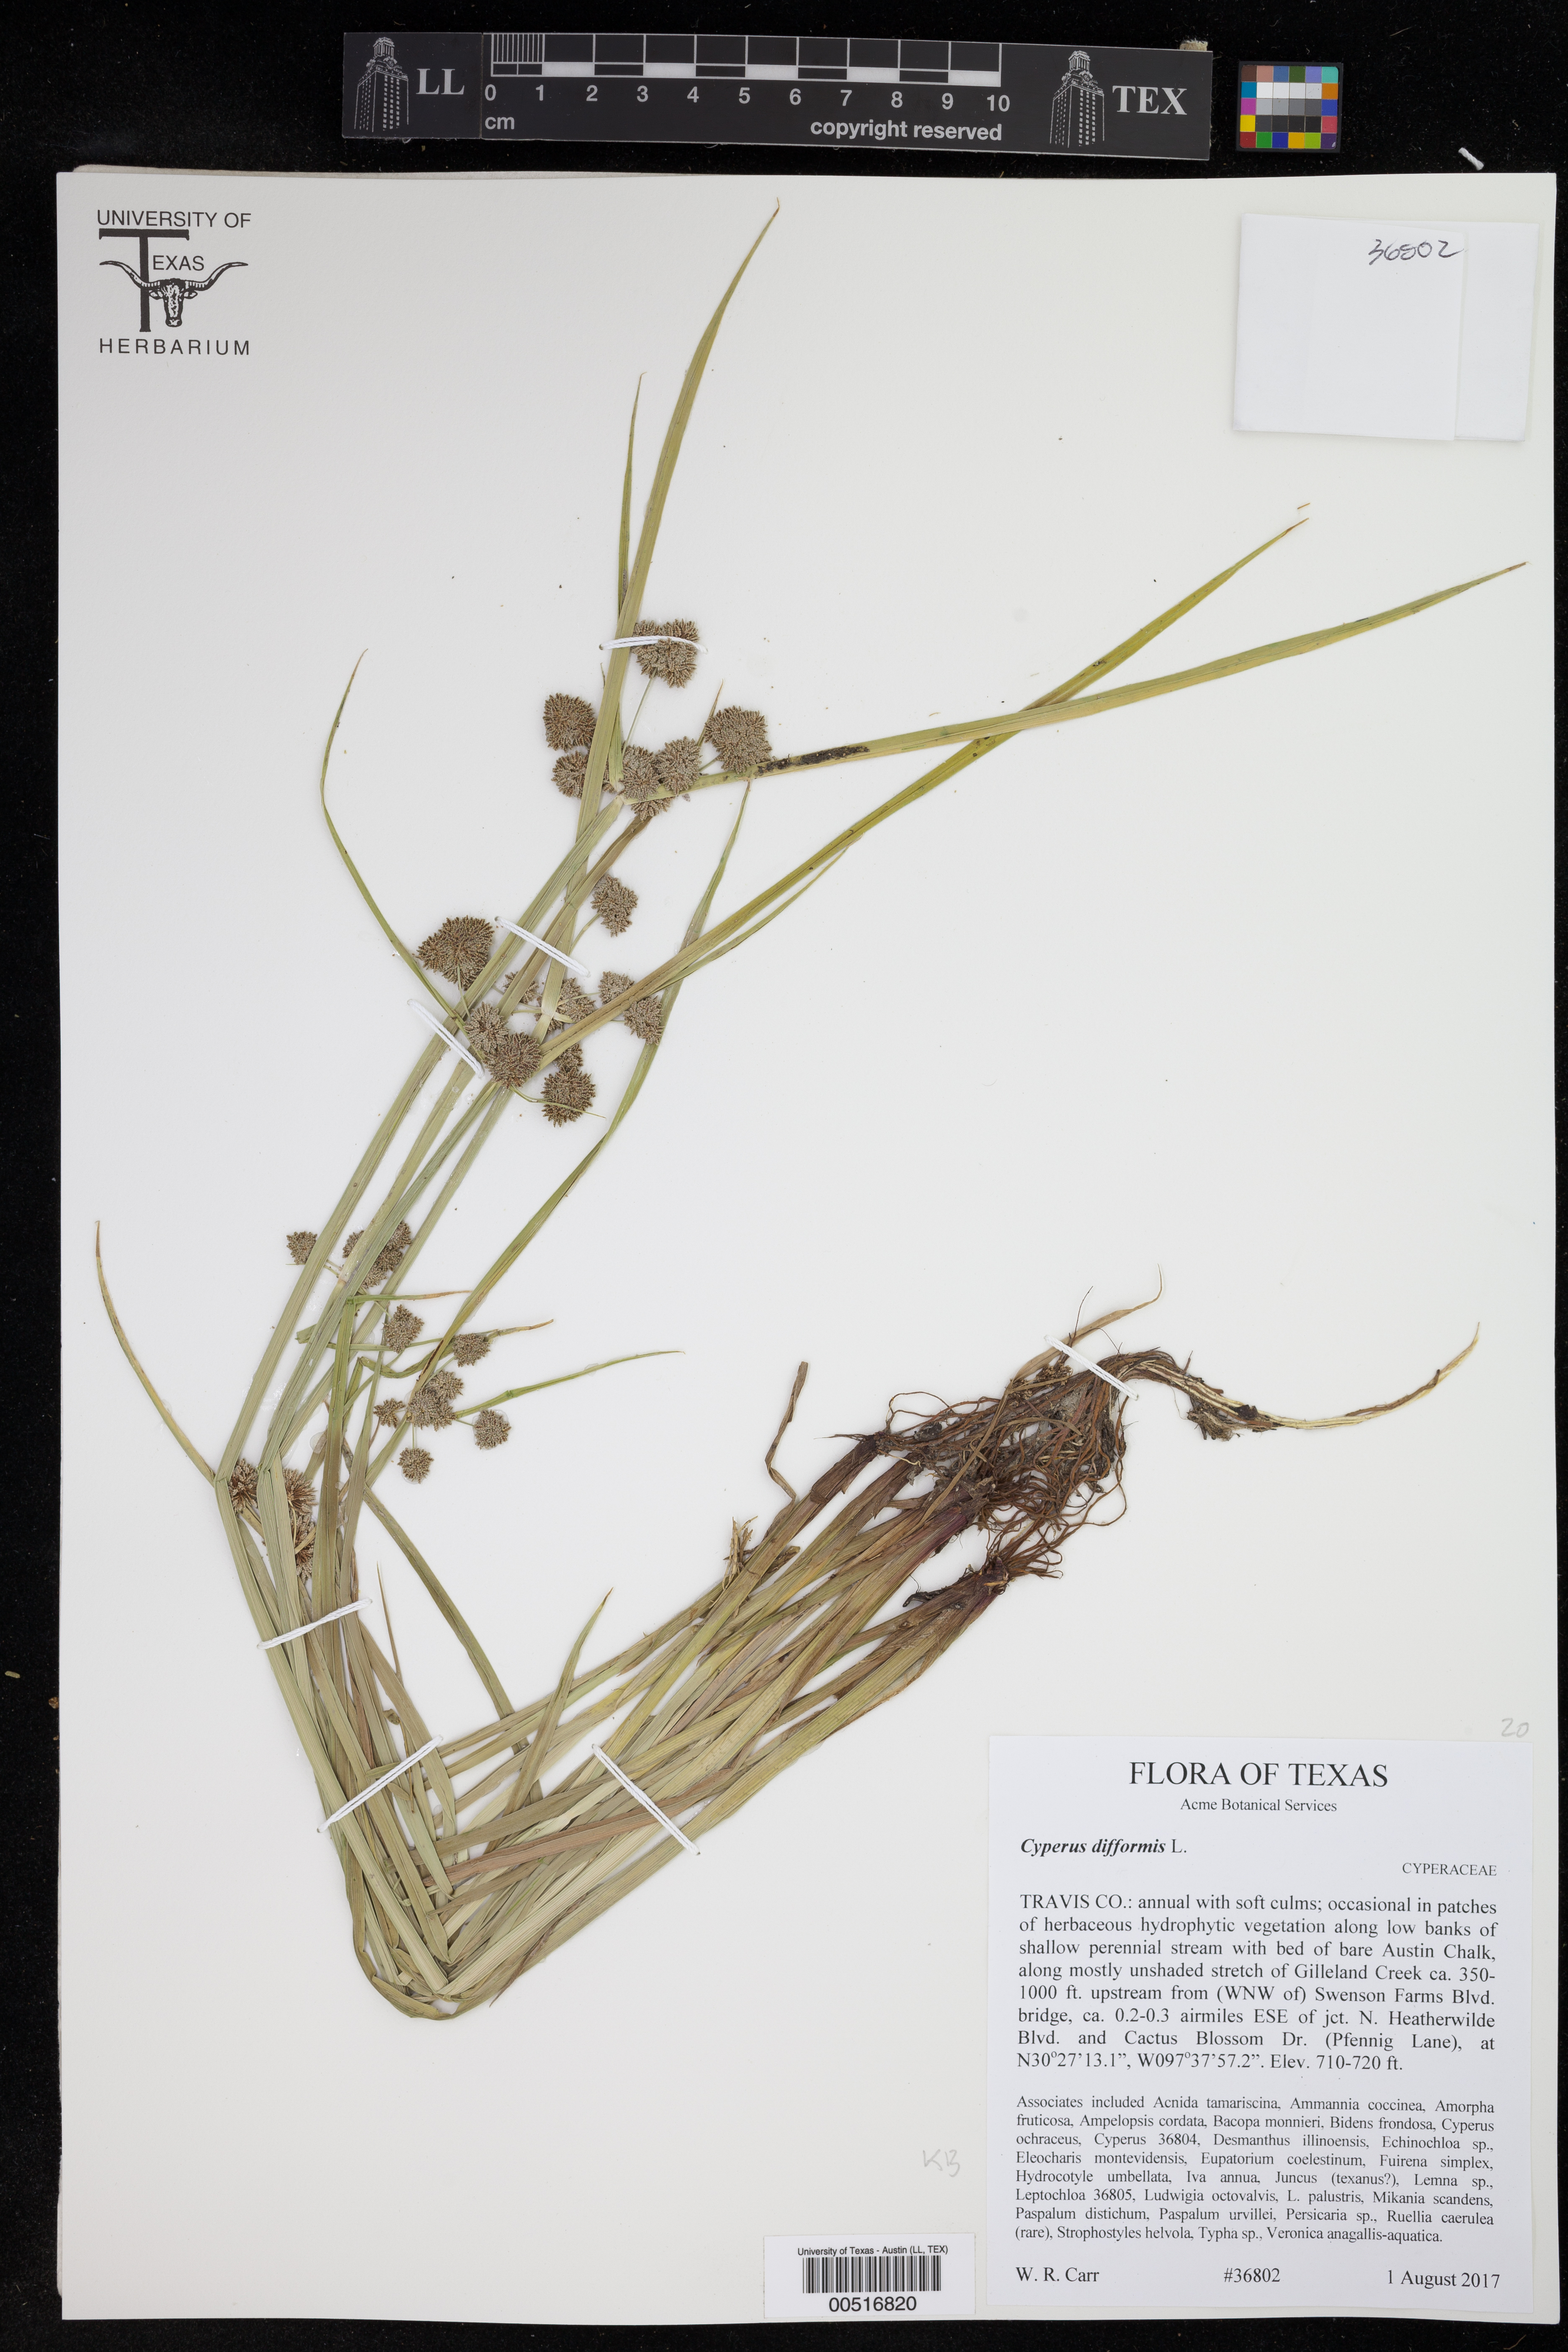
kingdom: Plantae
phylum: Tracheophyta
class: Liliopsida
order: Poales
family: Cyperaceae
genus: Cyperus
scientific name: Cyperus difformis
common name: Variable flatsedge
